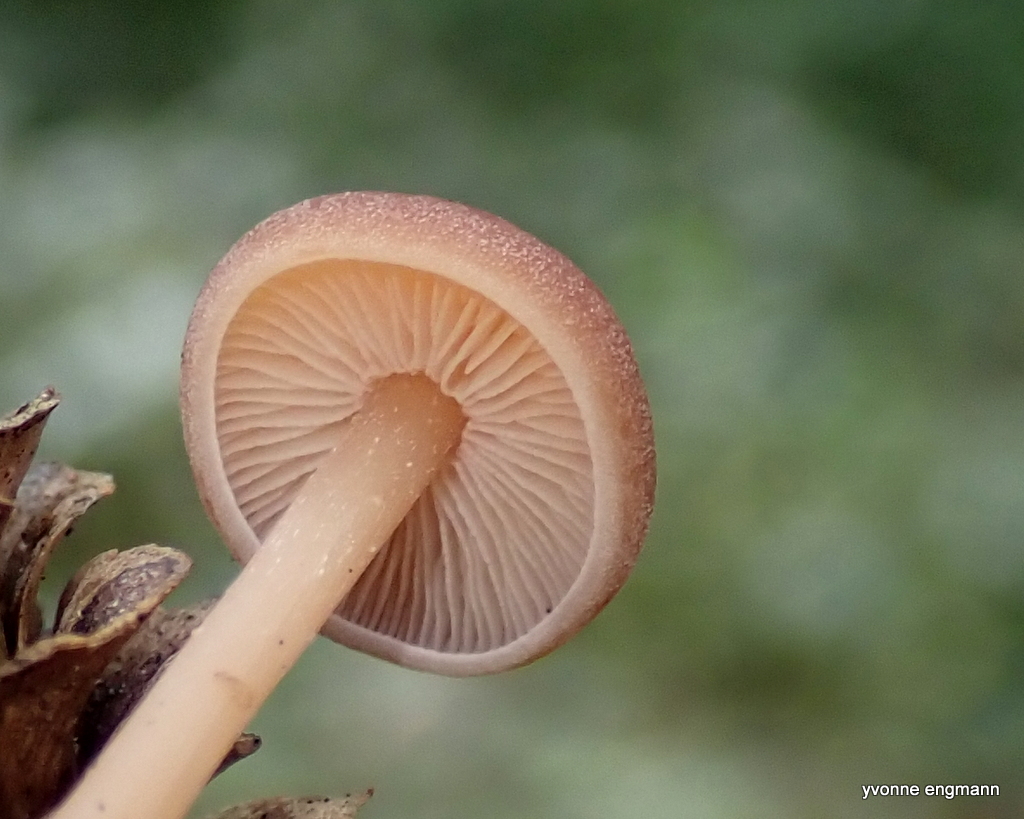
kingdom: Fungi
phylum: Basidiomycota
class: Agaricomycetes
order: Agaricales
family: Tricholomataceae
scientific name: Tricholomataceae
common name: ridderhatfamilien
